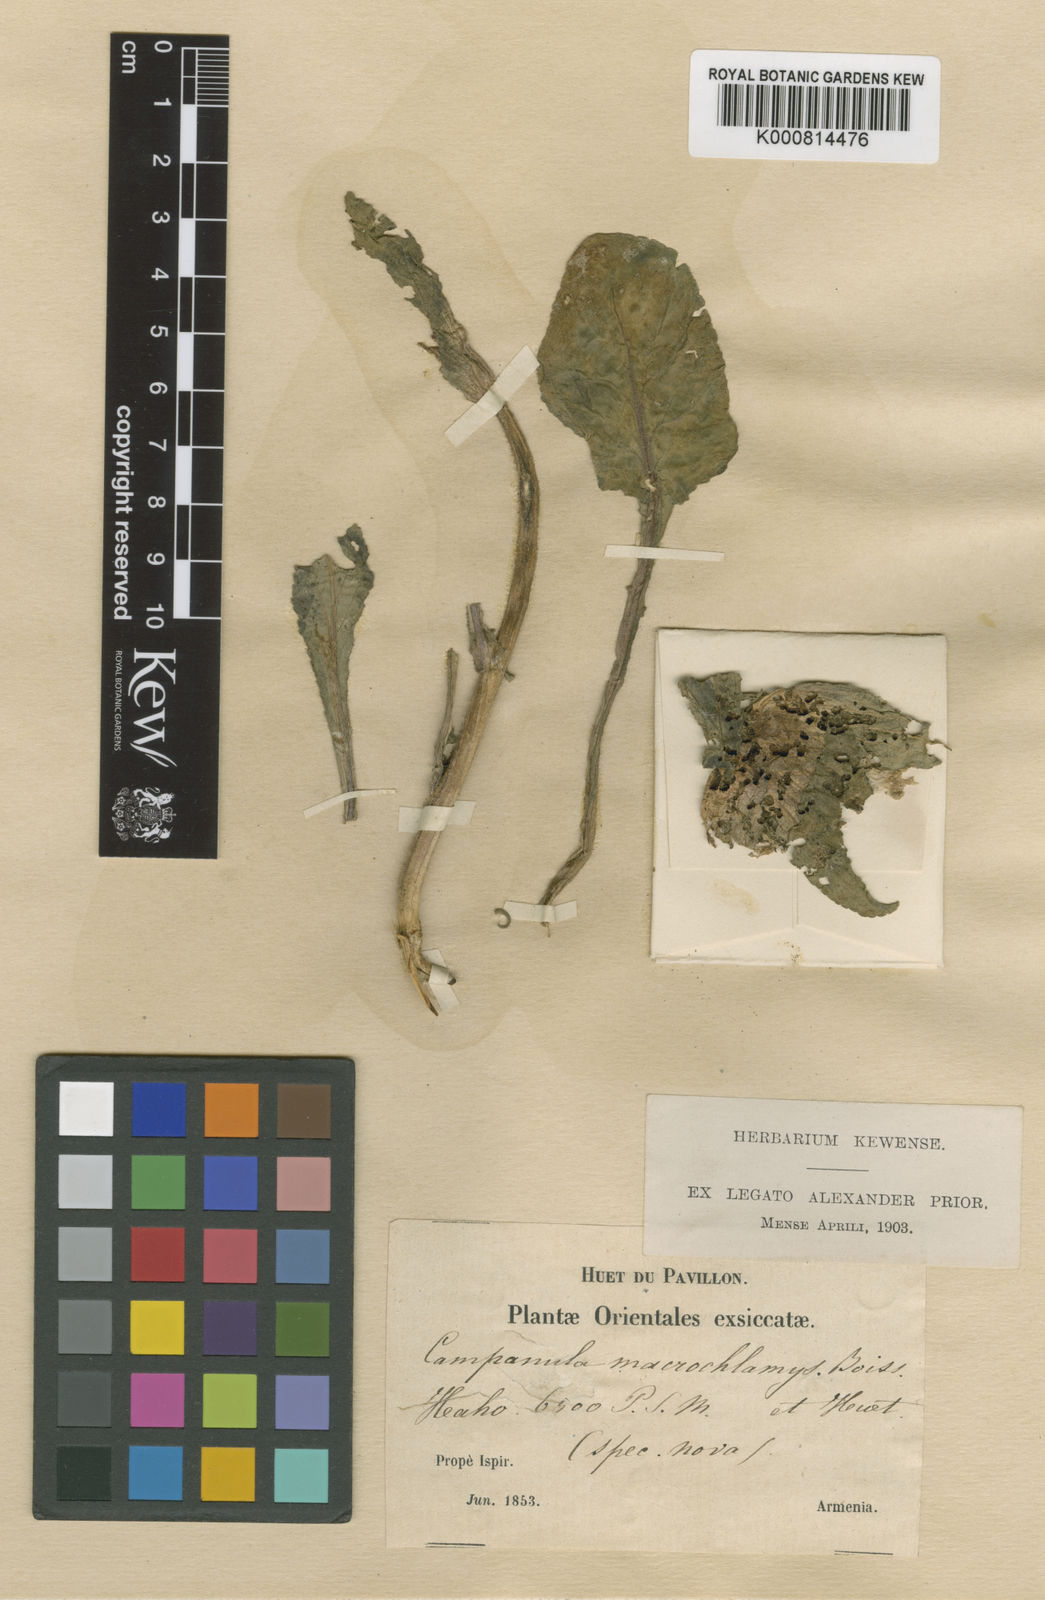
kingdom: Plantae
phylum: Tracheophyta
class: Magnoliopsida
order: Asterales
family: Campanulaceae
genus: Campanula
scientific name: Campanula macrochlamys
